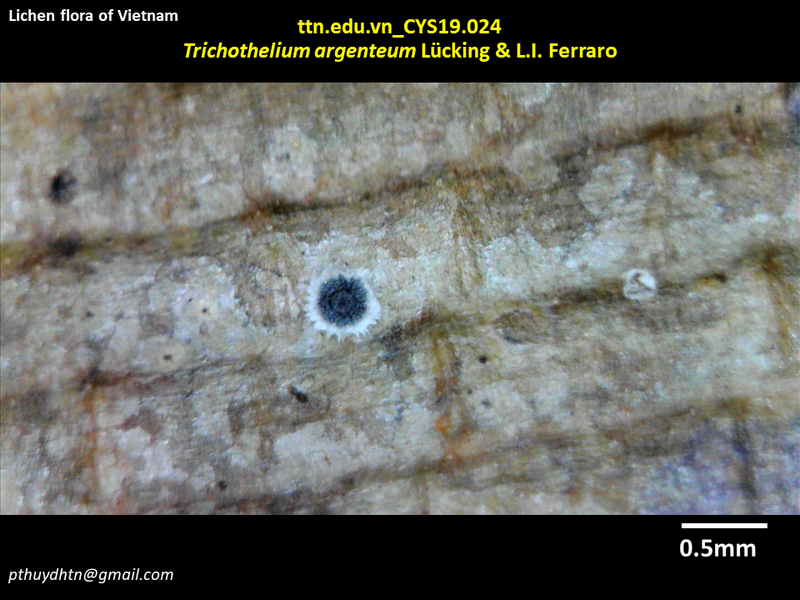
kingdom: Fungi
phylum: Ascomycota
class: Lecanoromycetes
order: Ostropales
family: Porinaceae
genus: Trichothelium
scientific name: Trichothelium argenteum
